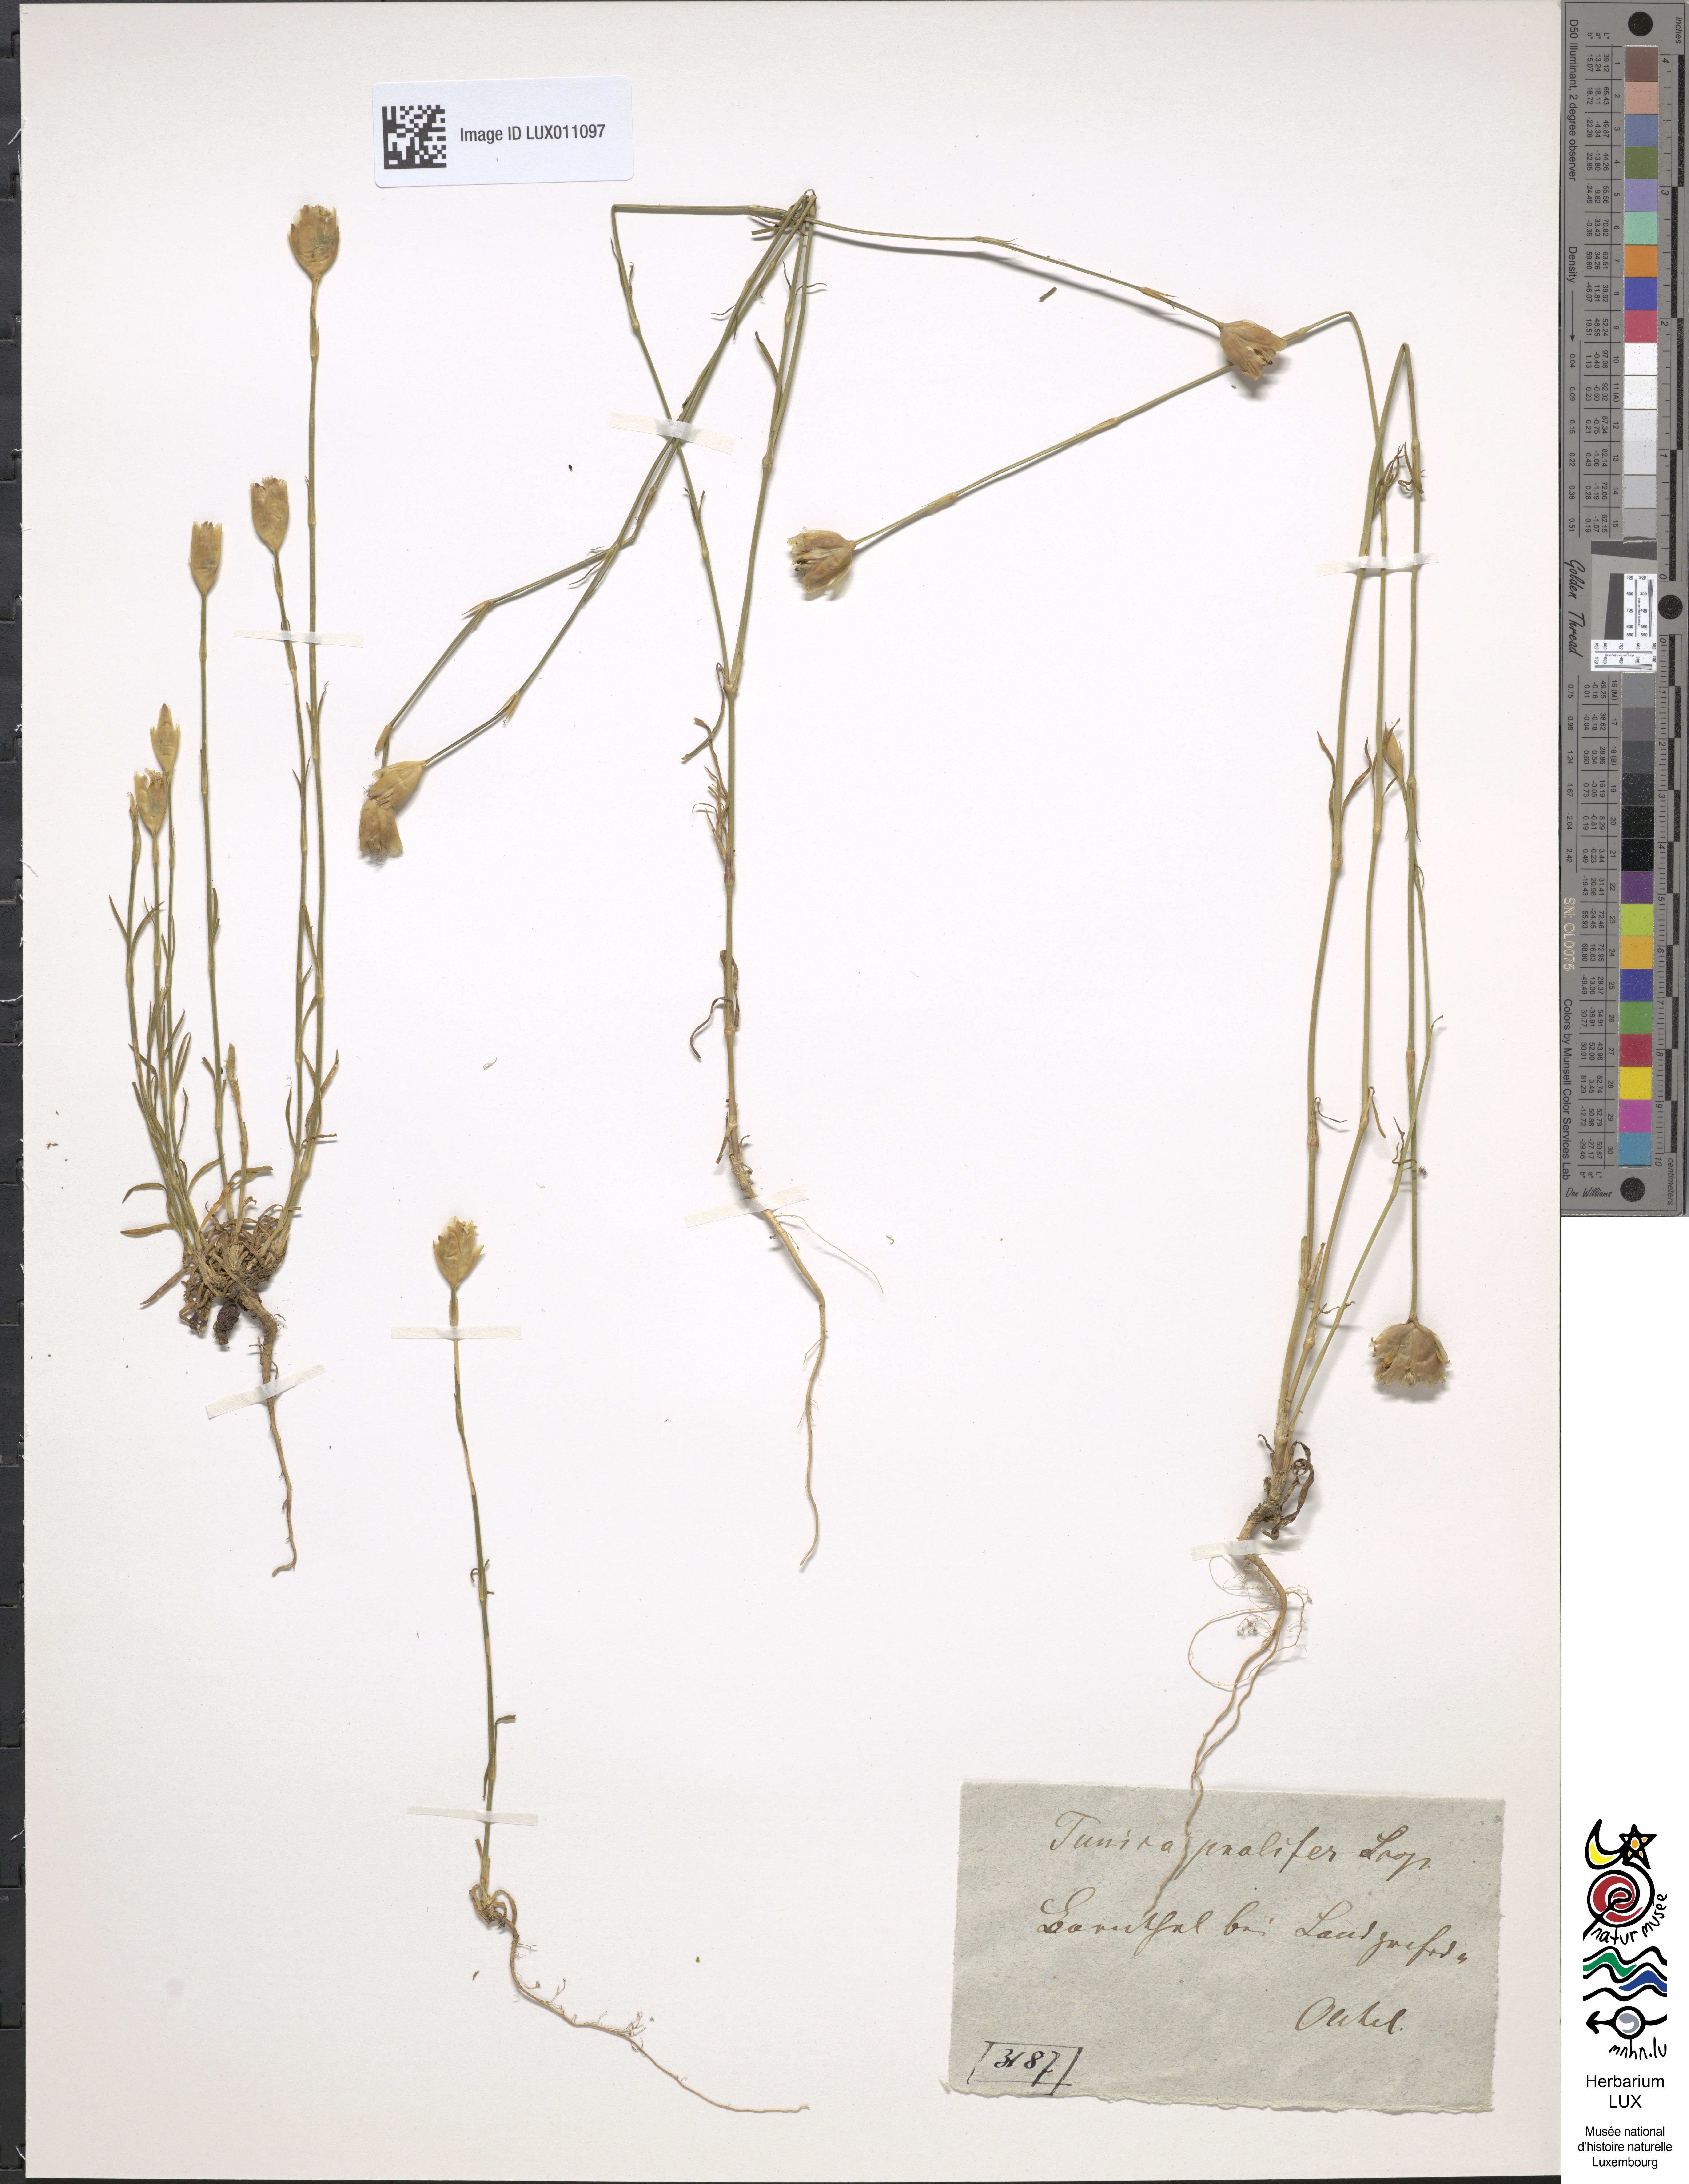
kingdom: Plantae
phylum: Tracheophyta
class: Magnoliopsida
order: Caryophyllales
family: Caryophyllaceae
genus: Petrorhagia
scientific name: Petrorhagia prolifera
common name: Proliferous pink
